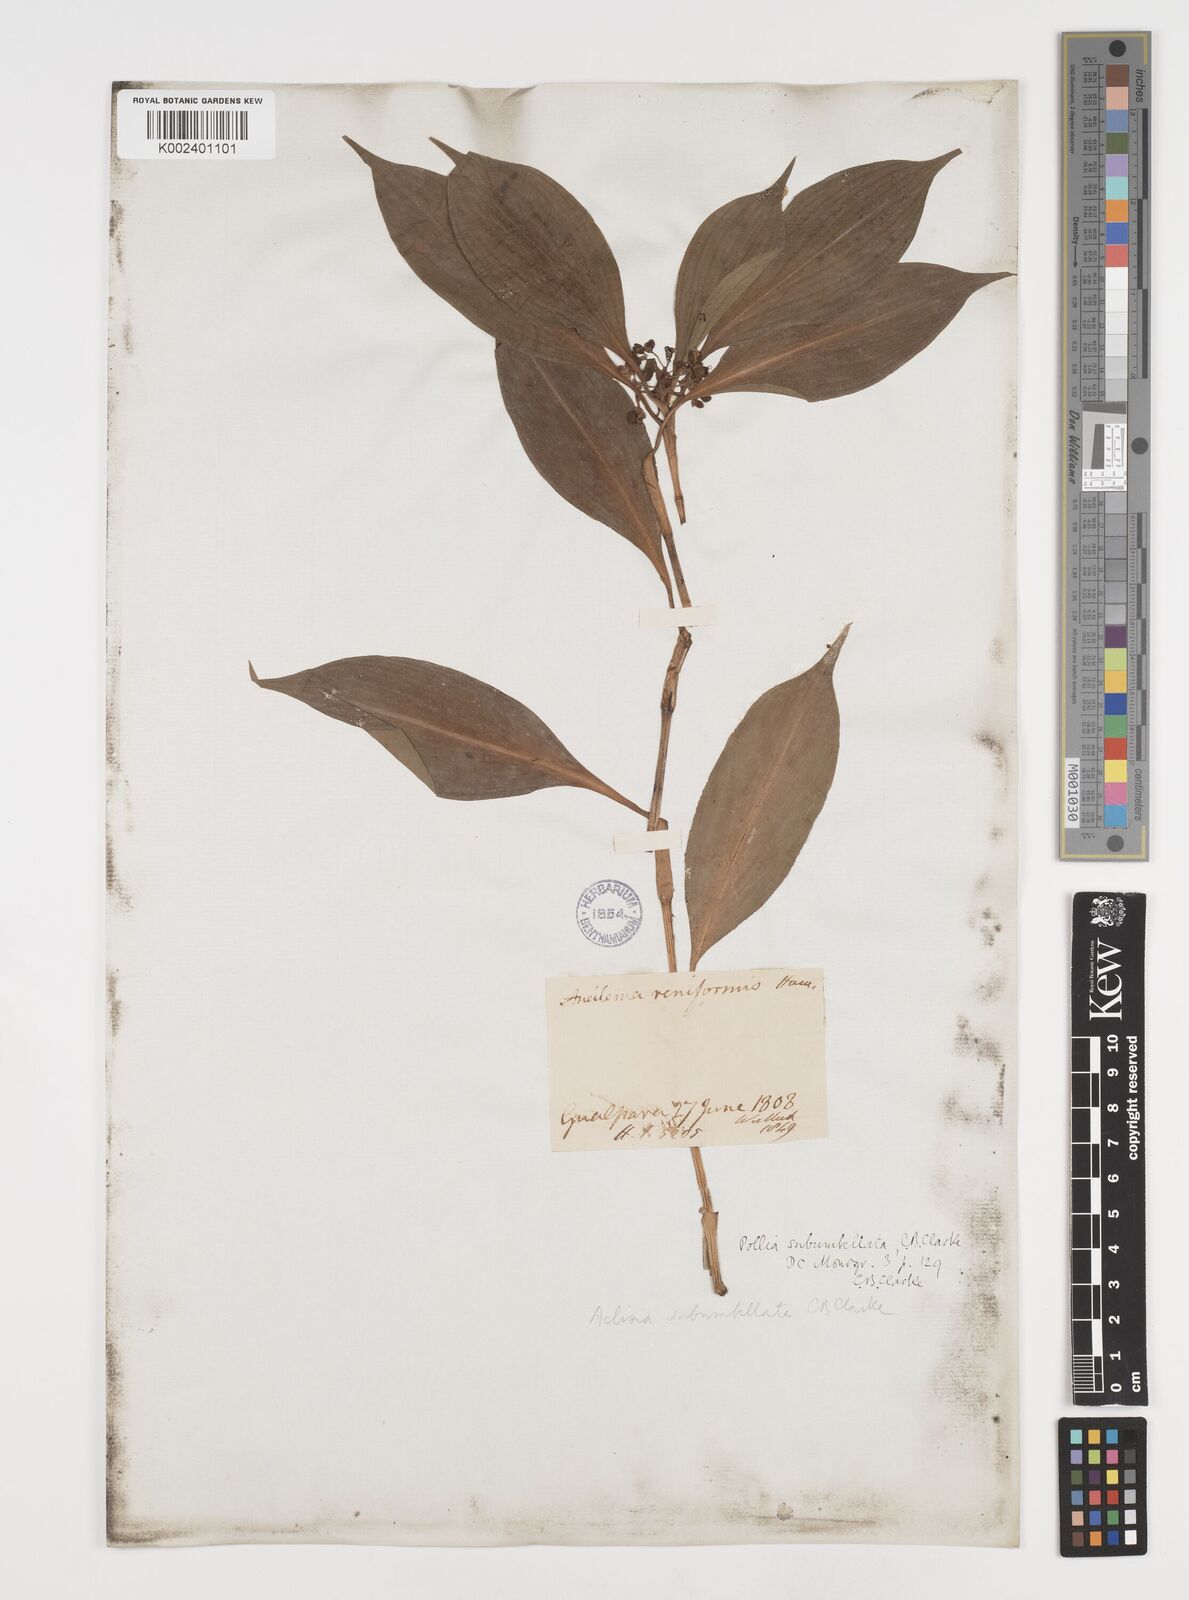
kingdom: Plantae
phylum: Tracheophyta
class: Liliopsida
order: Commelinales
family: Commelinaceae
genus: Pollia
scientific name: Pollia subumbellata
